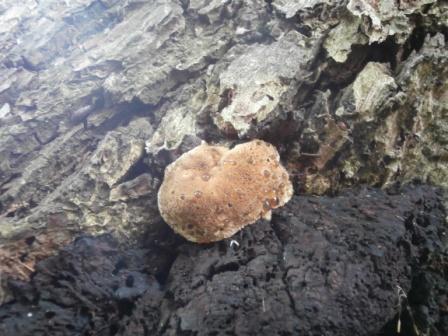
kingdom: Fungi
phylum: Basidiomycota
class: Agaricomycetes
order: Hymenochaetales
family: Hymenochaetaceae
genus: Pseudoinonotus
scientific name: Pseudoinonotus dryadeus
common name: ege-spejlporesvamp
